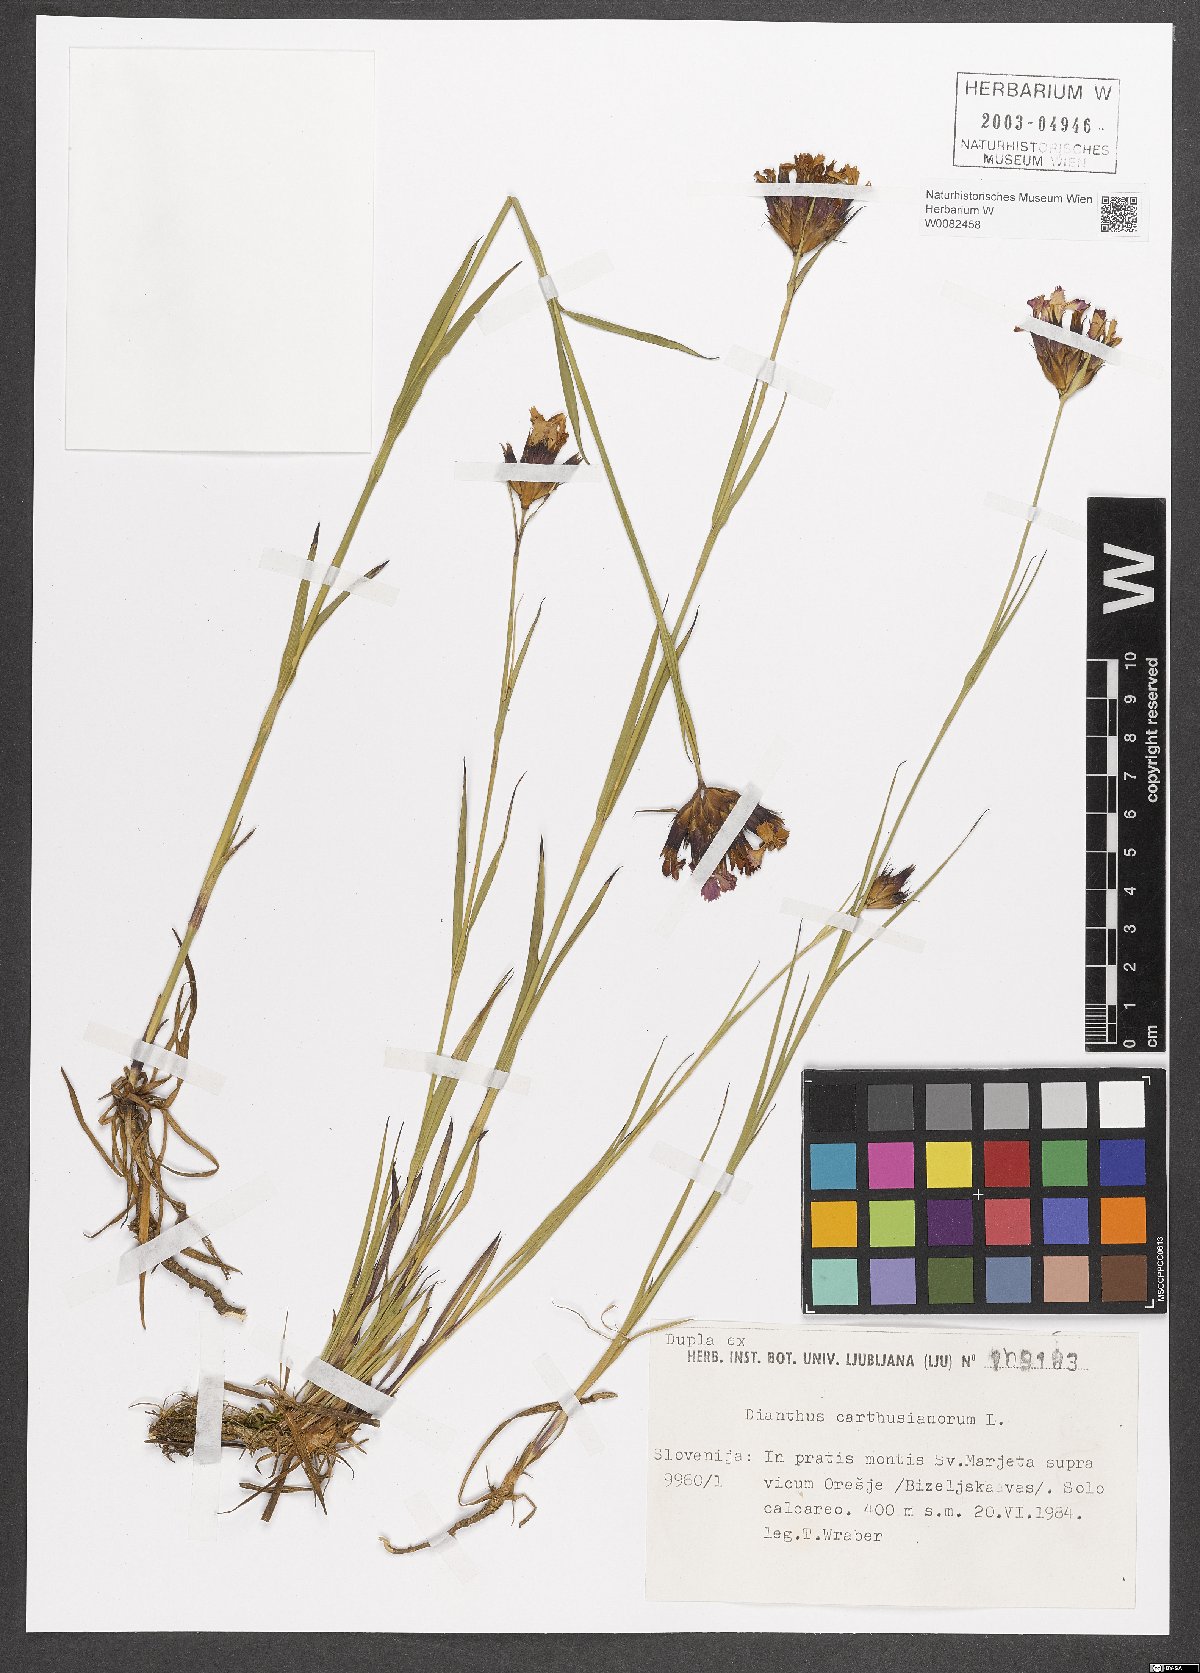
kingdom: Plantae
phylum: Tracheophyta
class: Magnoliopsida
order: Caryophyllales
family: Caryophyllaceae
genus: Dianthus
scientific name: Dianthus carthusianorum
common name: Carthusian pink
